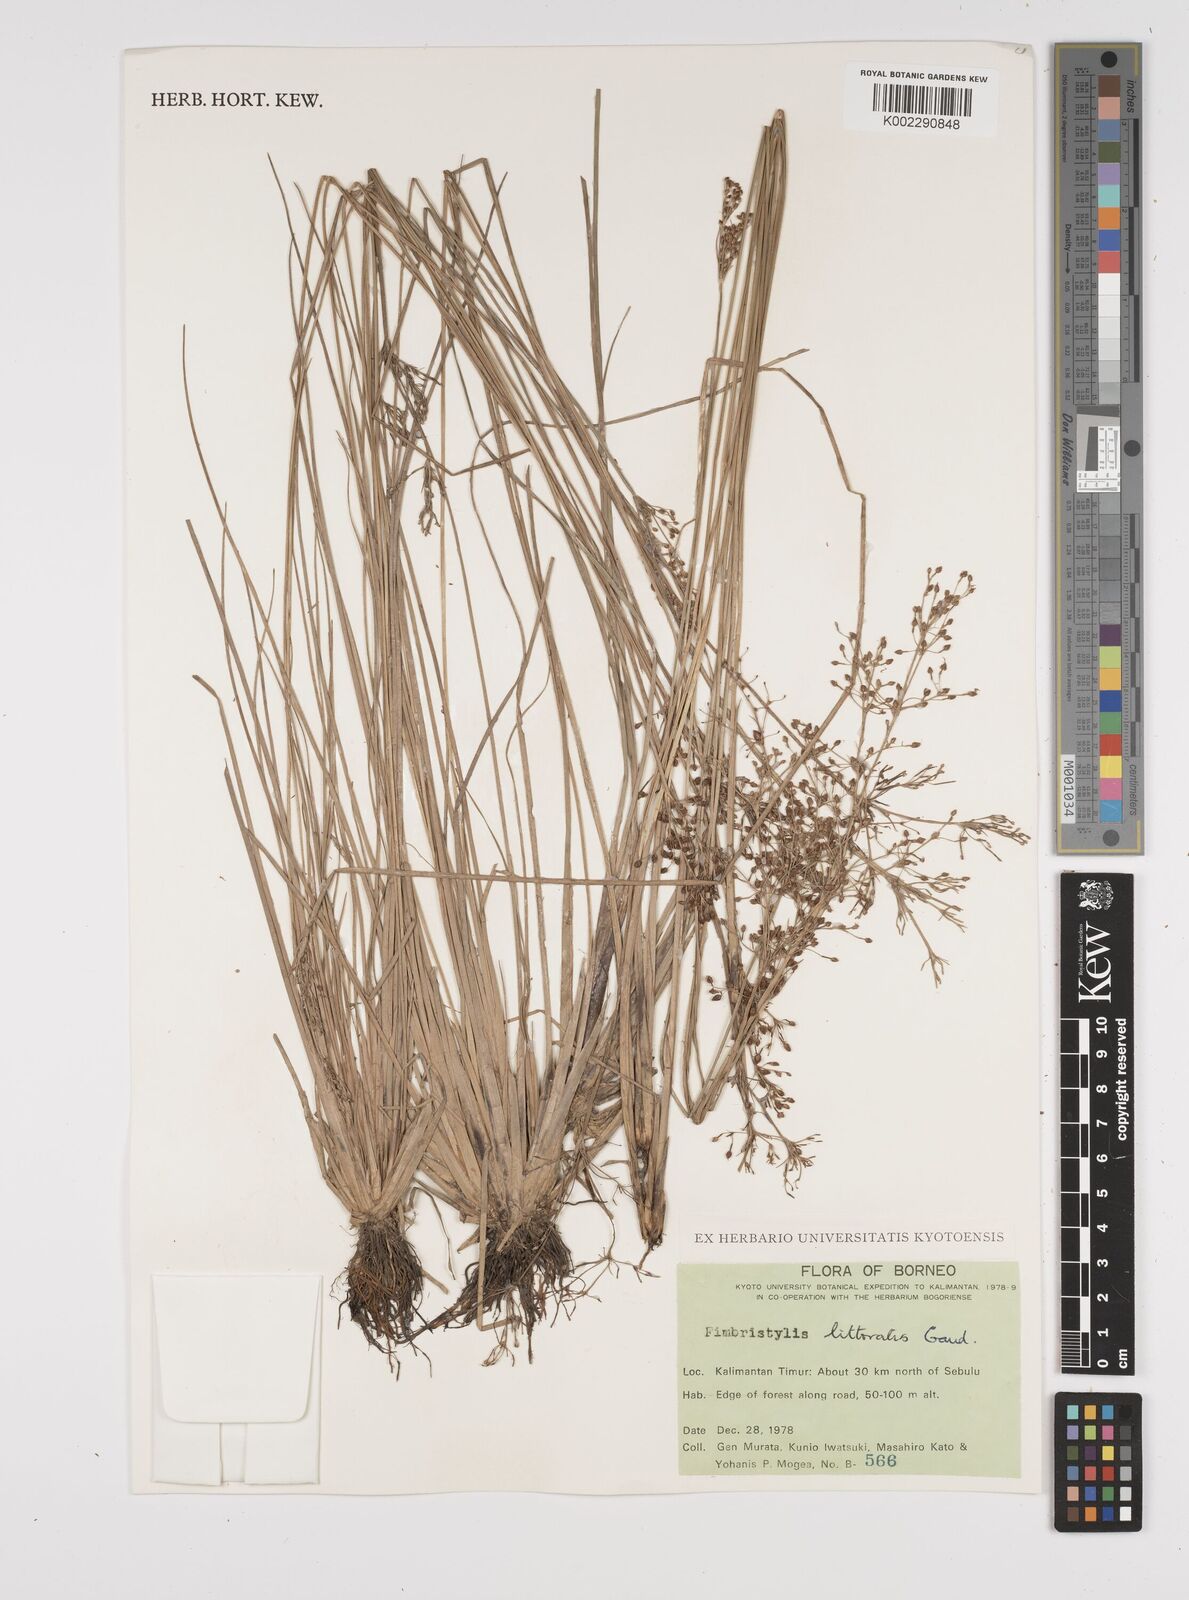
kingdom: Plantae
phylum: Tracheophyta
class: Liliopsida
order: Poales
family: Cyperaceae
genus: Fimbristylis
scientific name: Fimbristylis littoralis
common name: Fimbry
